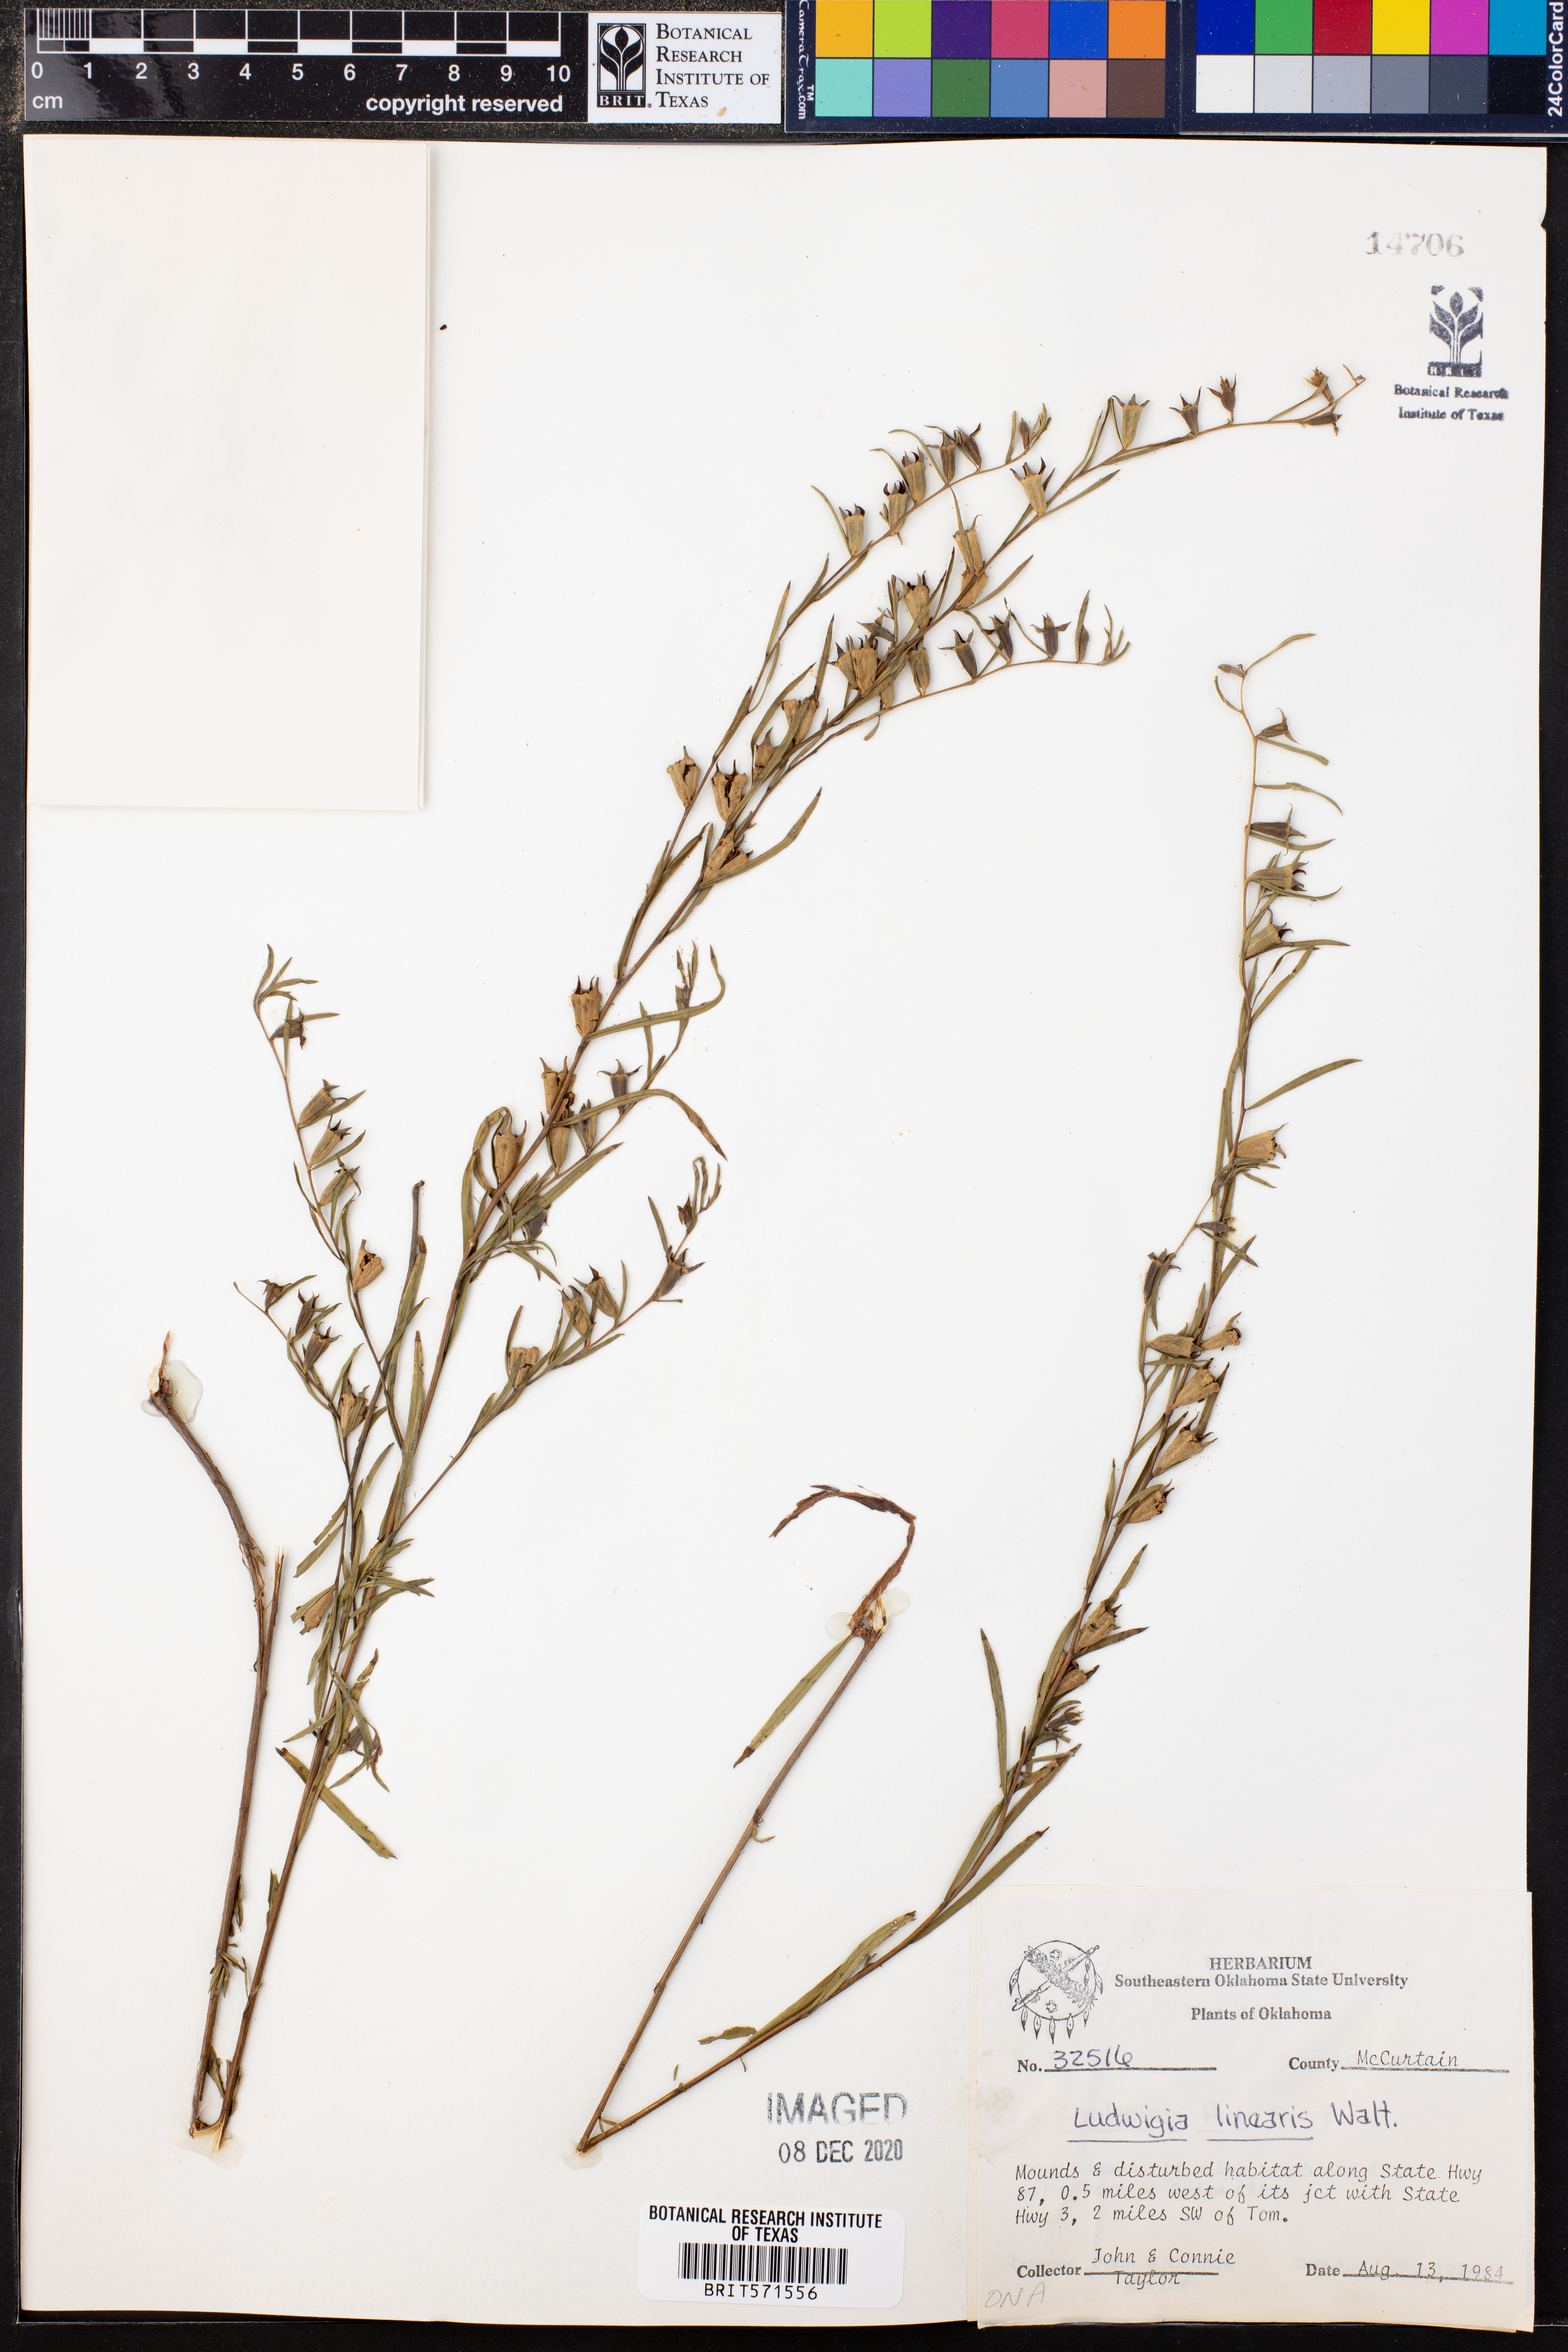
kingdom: Plantae
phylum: Tracheophyta
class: Magnoliopsida
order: Myrtales
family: Onagraceae
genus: Ludwigia
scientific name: Ludwigia linearis
